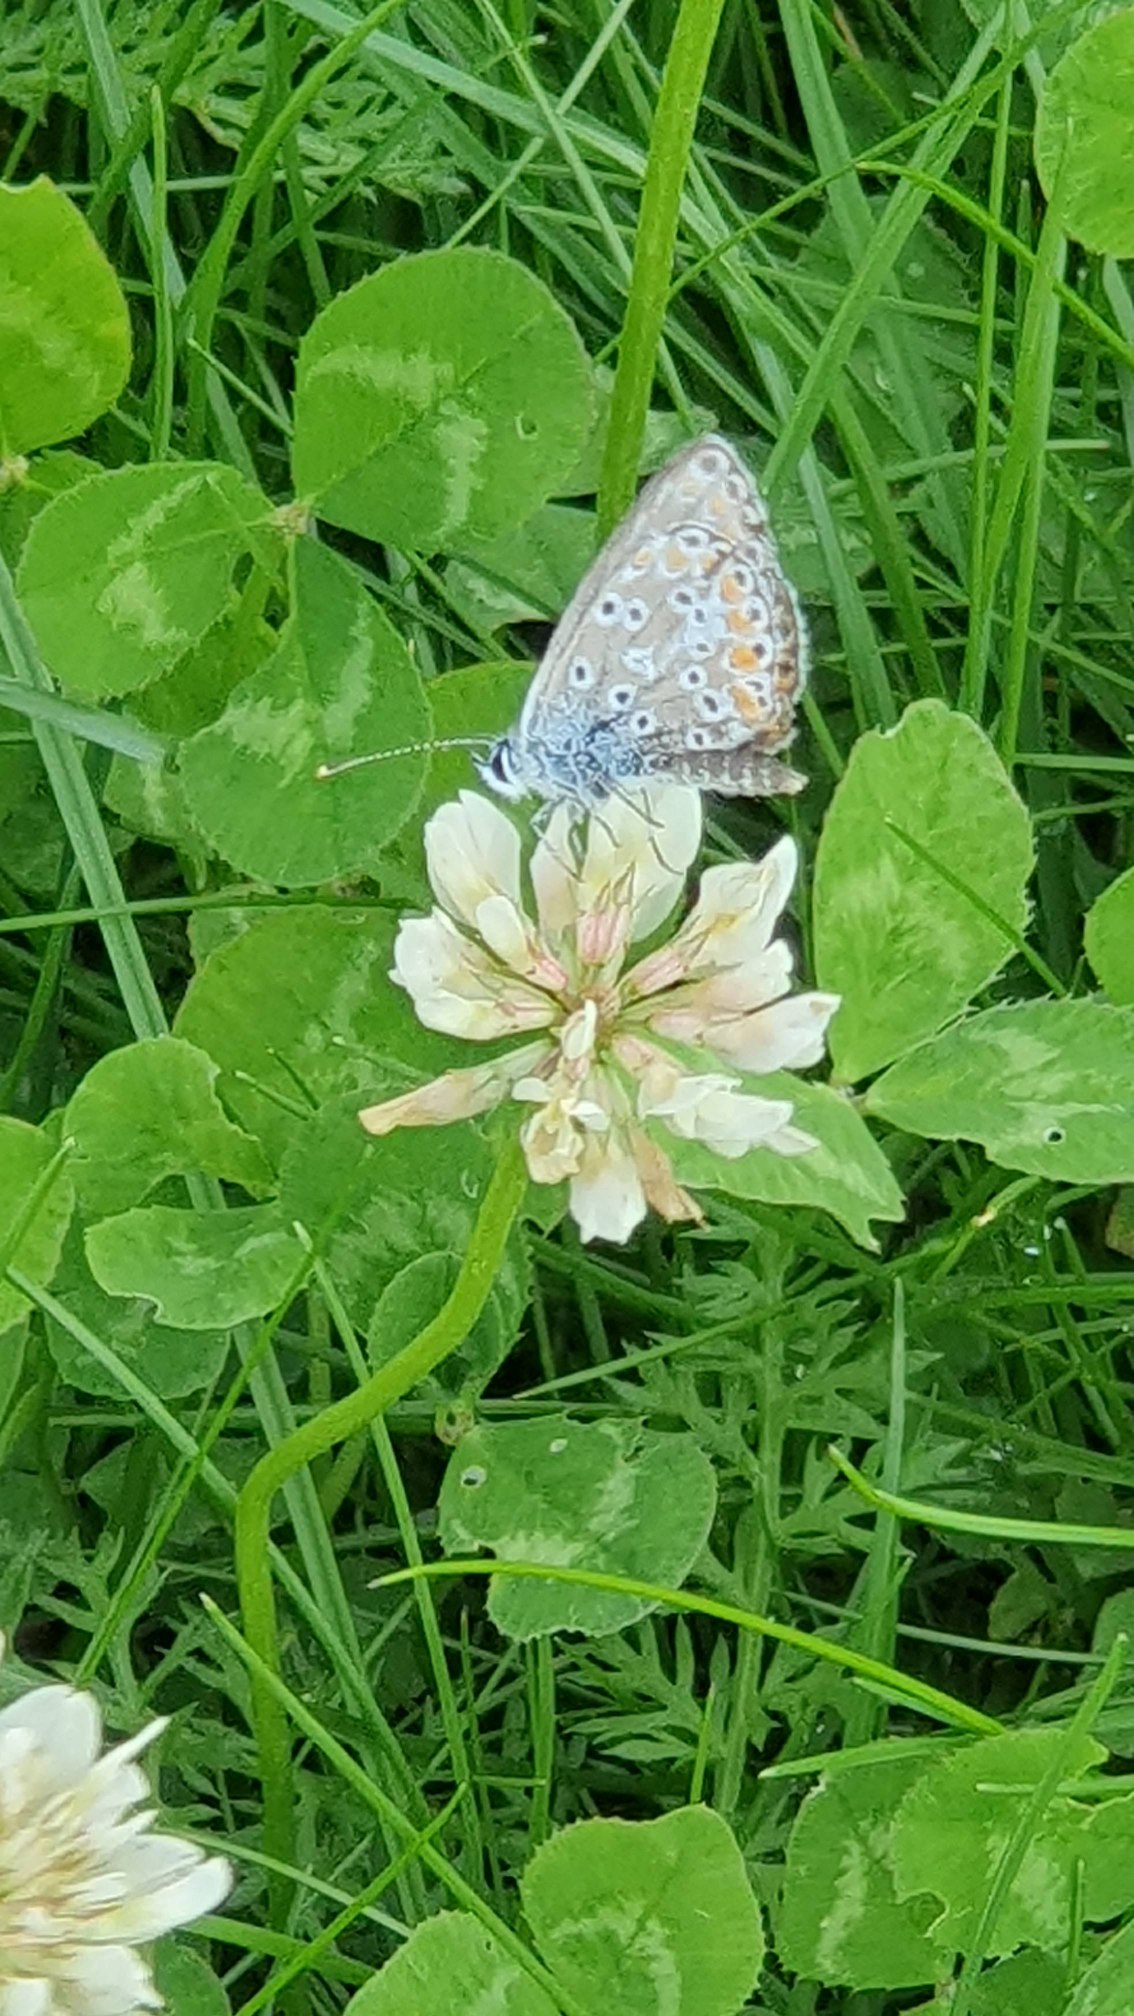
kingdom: Animalia
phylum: Arthropoda
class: Insecta
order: Lepidoptera
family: Lycaenidae
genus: Polyommatus
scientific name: Polyommatus icarus
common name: Almindelig blåfugl
